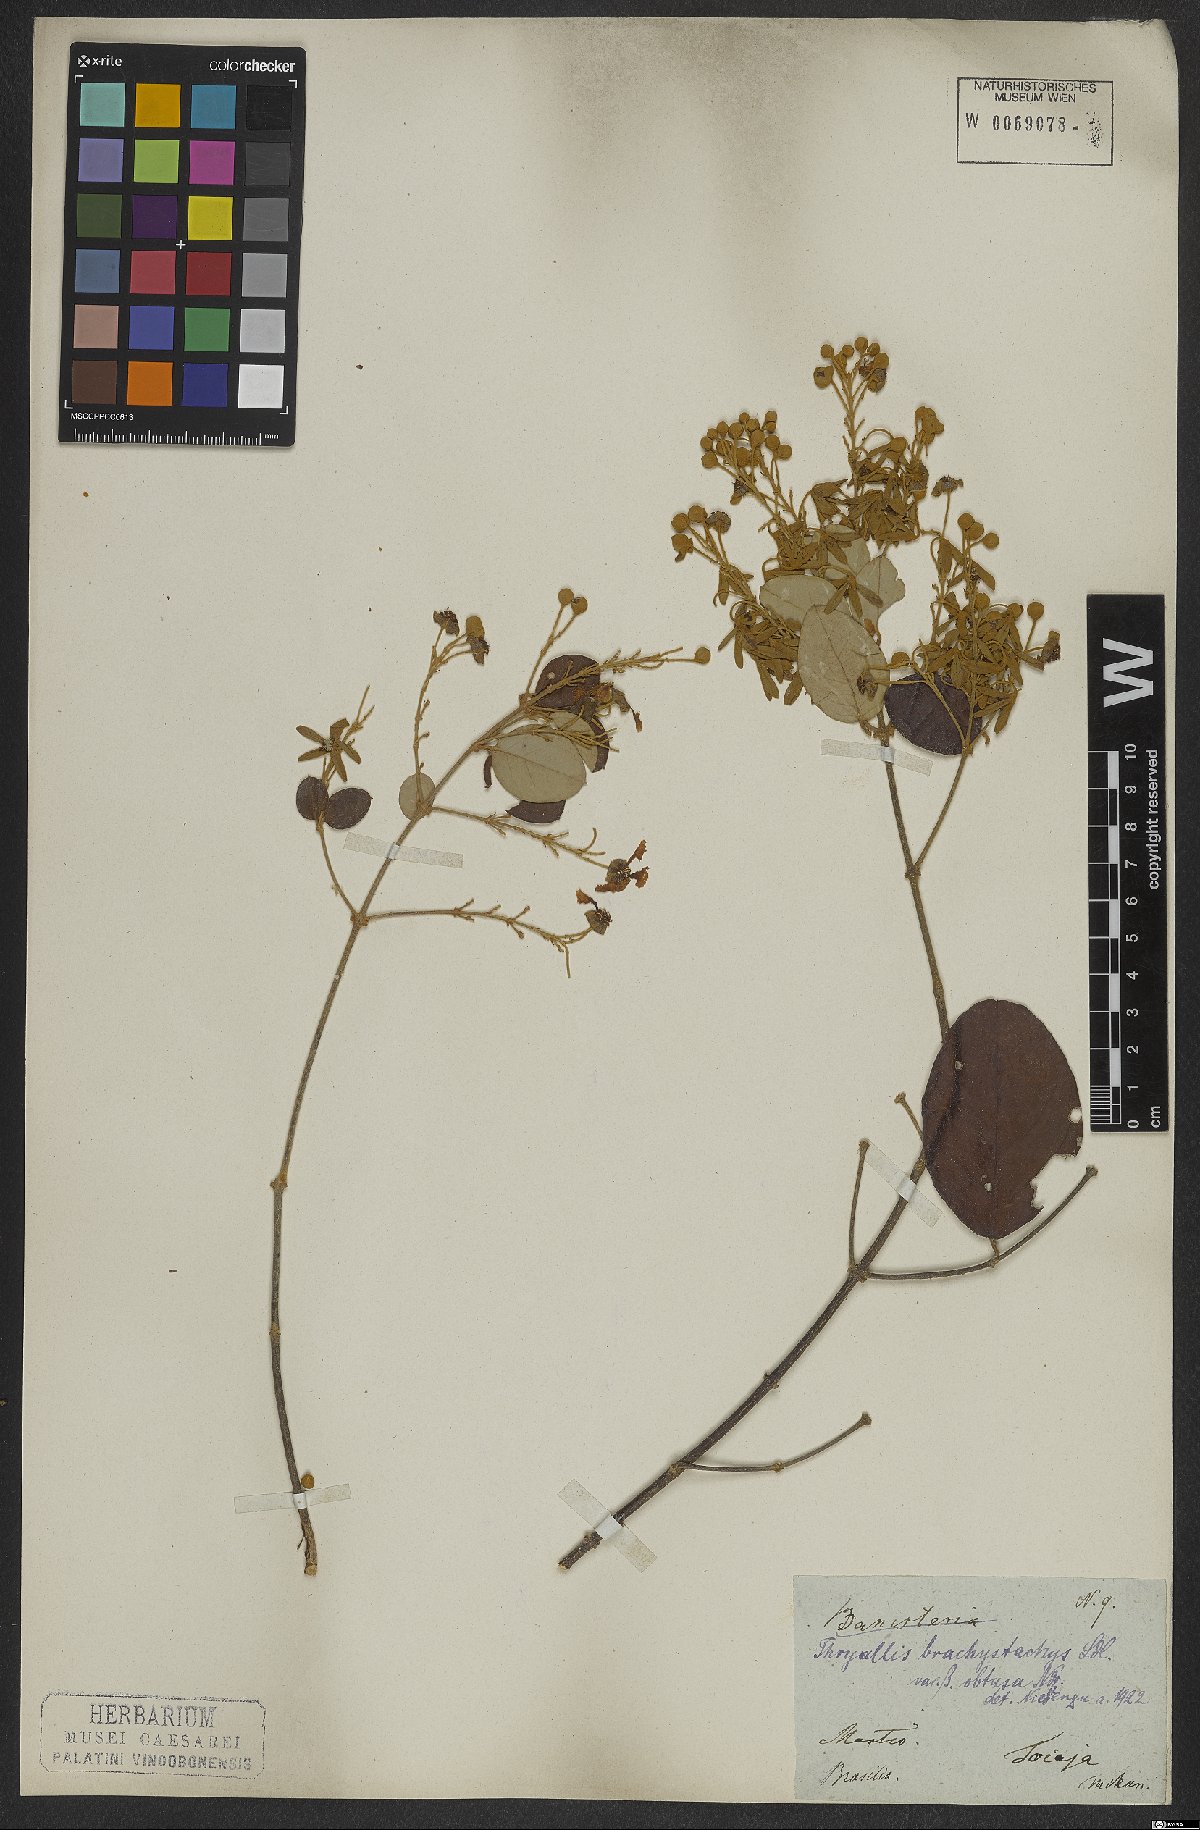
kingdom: Plantae
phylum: Tracheophyta
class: Magnoliopsida
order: Malpighiales
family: Malpighiaceae
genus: Thryallis
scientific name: Thryallis brachystachys
